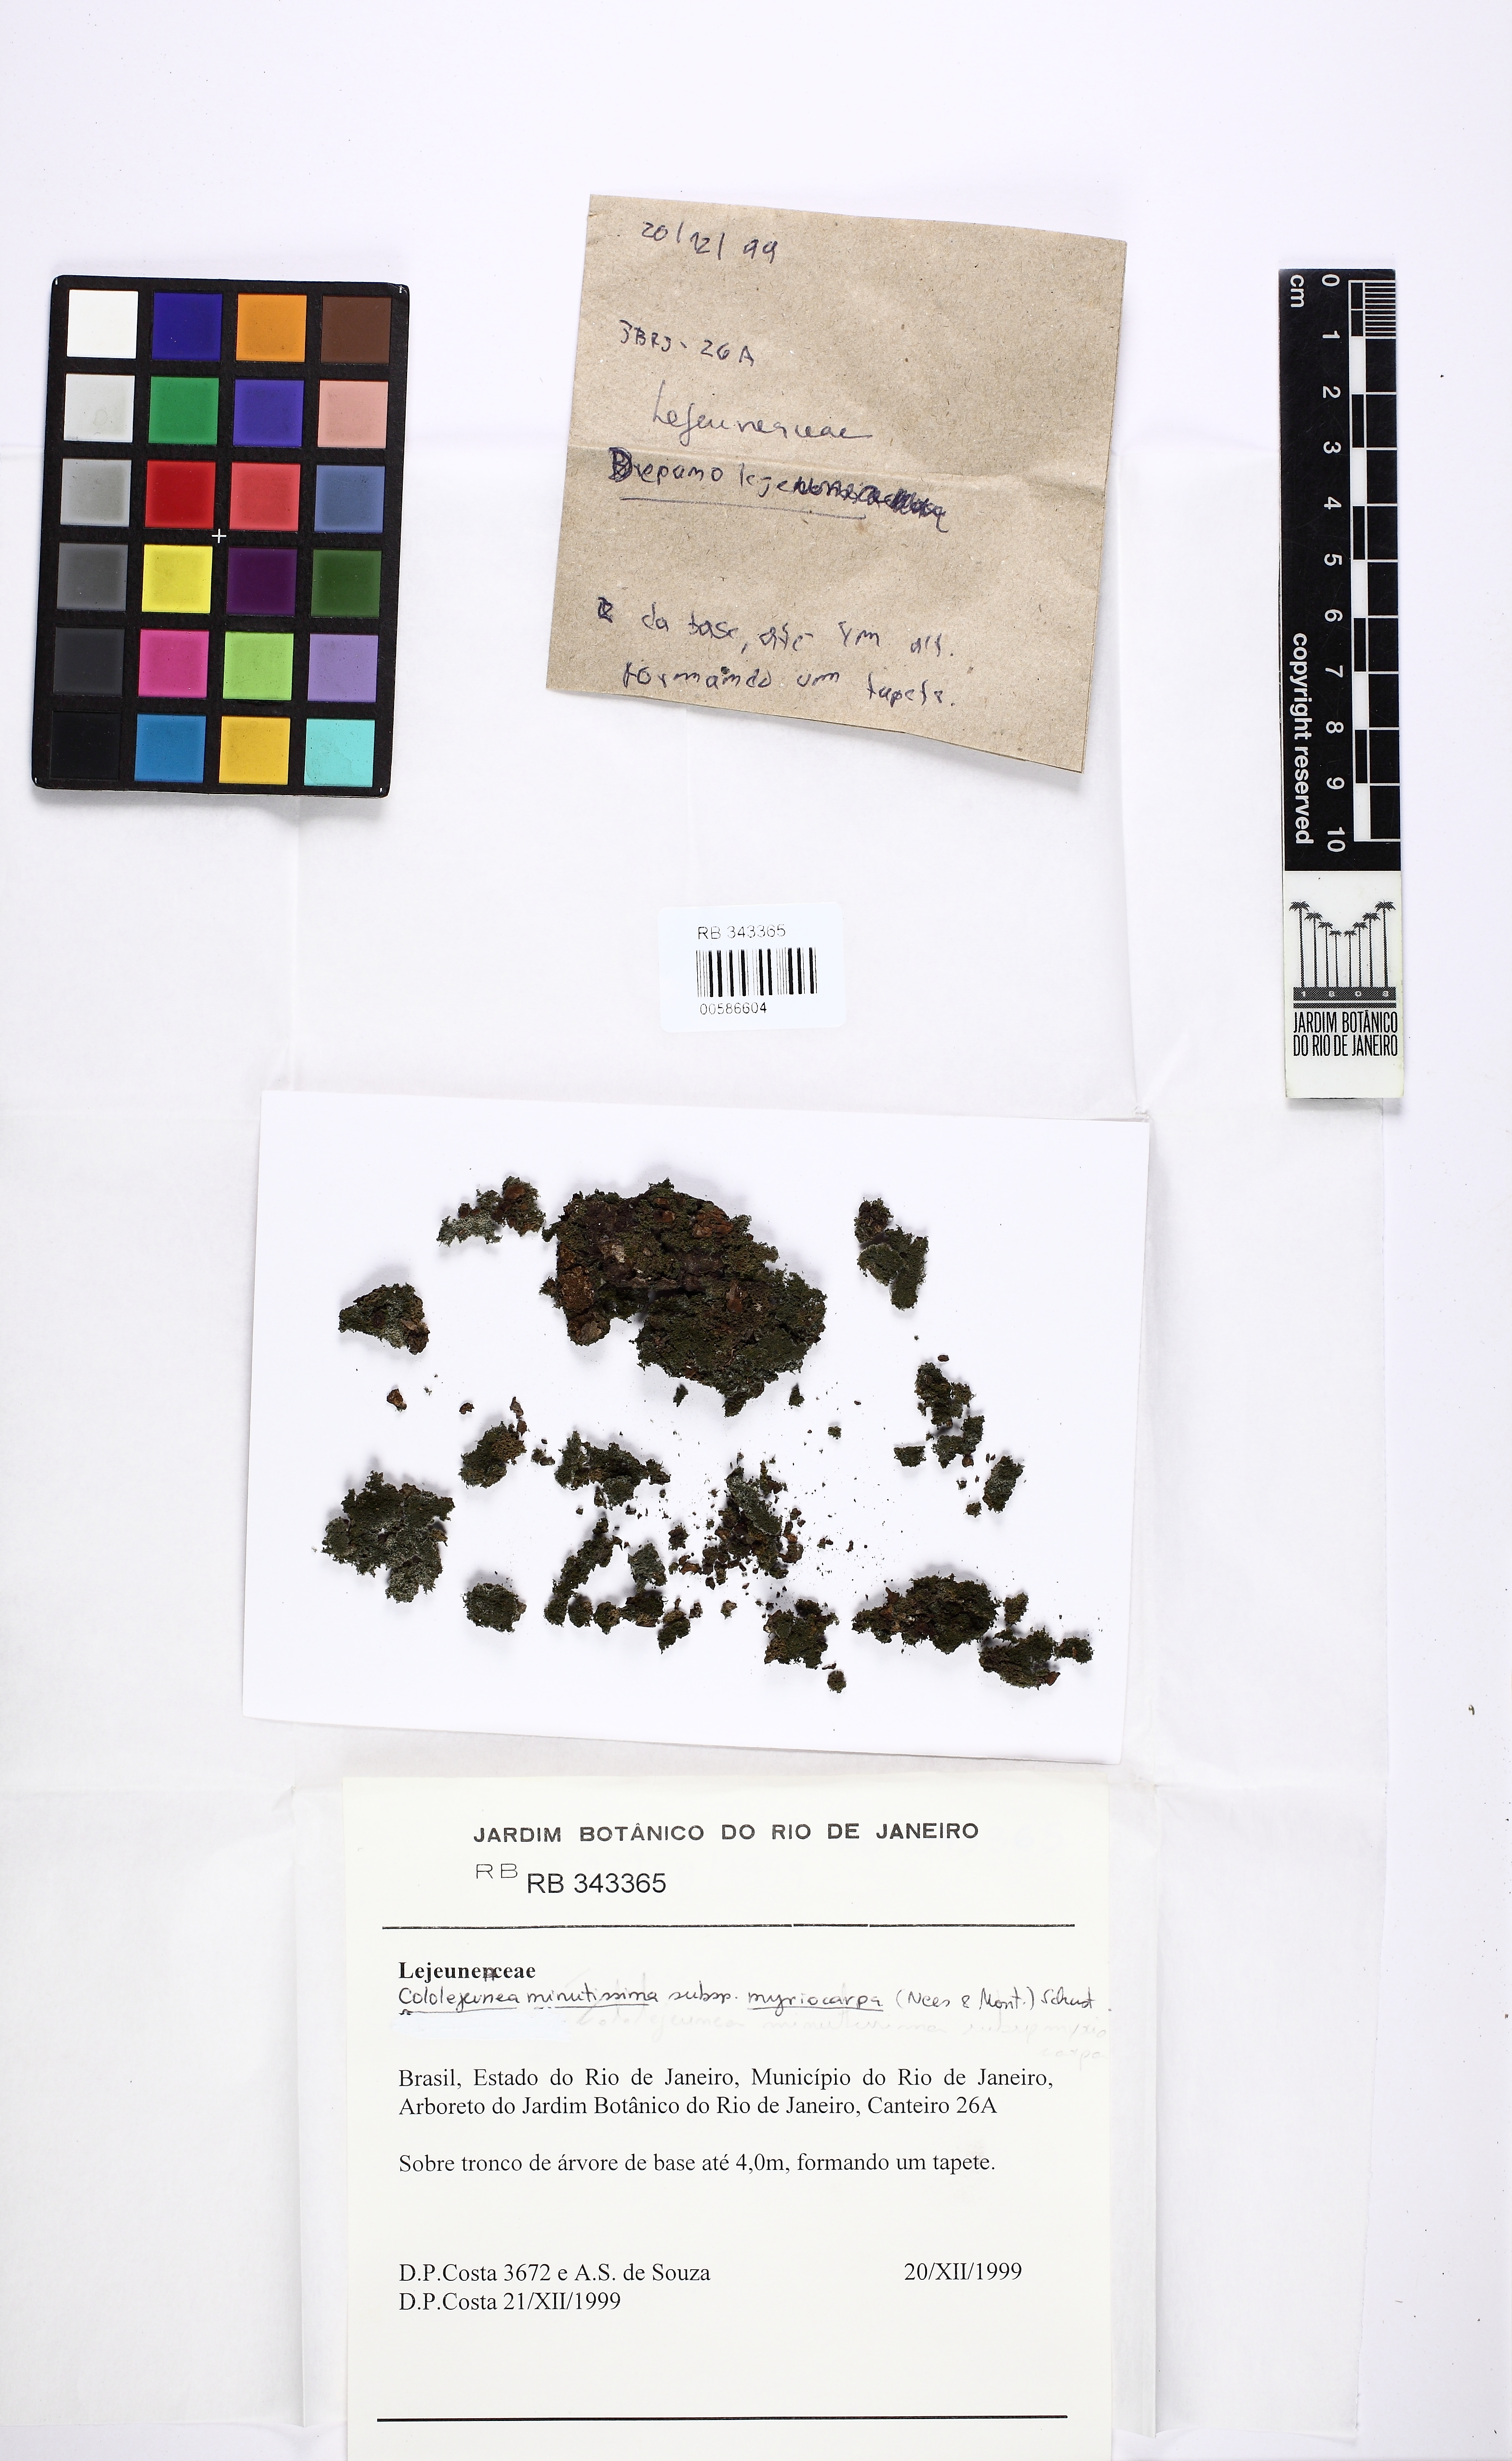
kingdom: Plantae
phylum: Marchantiophyta
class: Jungermanniopsida
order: Porellales
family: Lejeuneaceae
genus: Myriocoleopsis
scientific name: Myriocoleopsis minutissima
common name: Minute pouncewort
